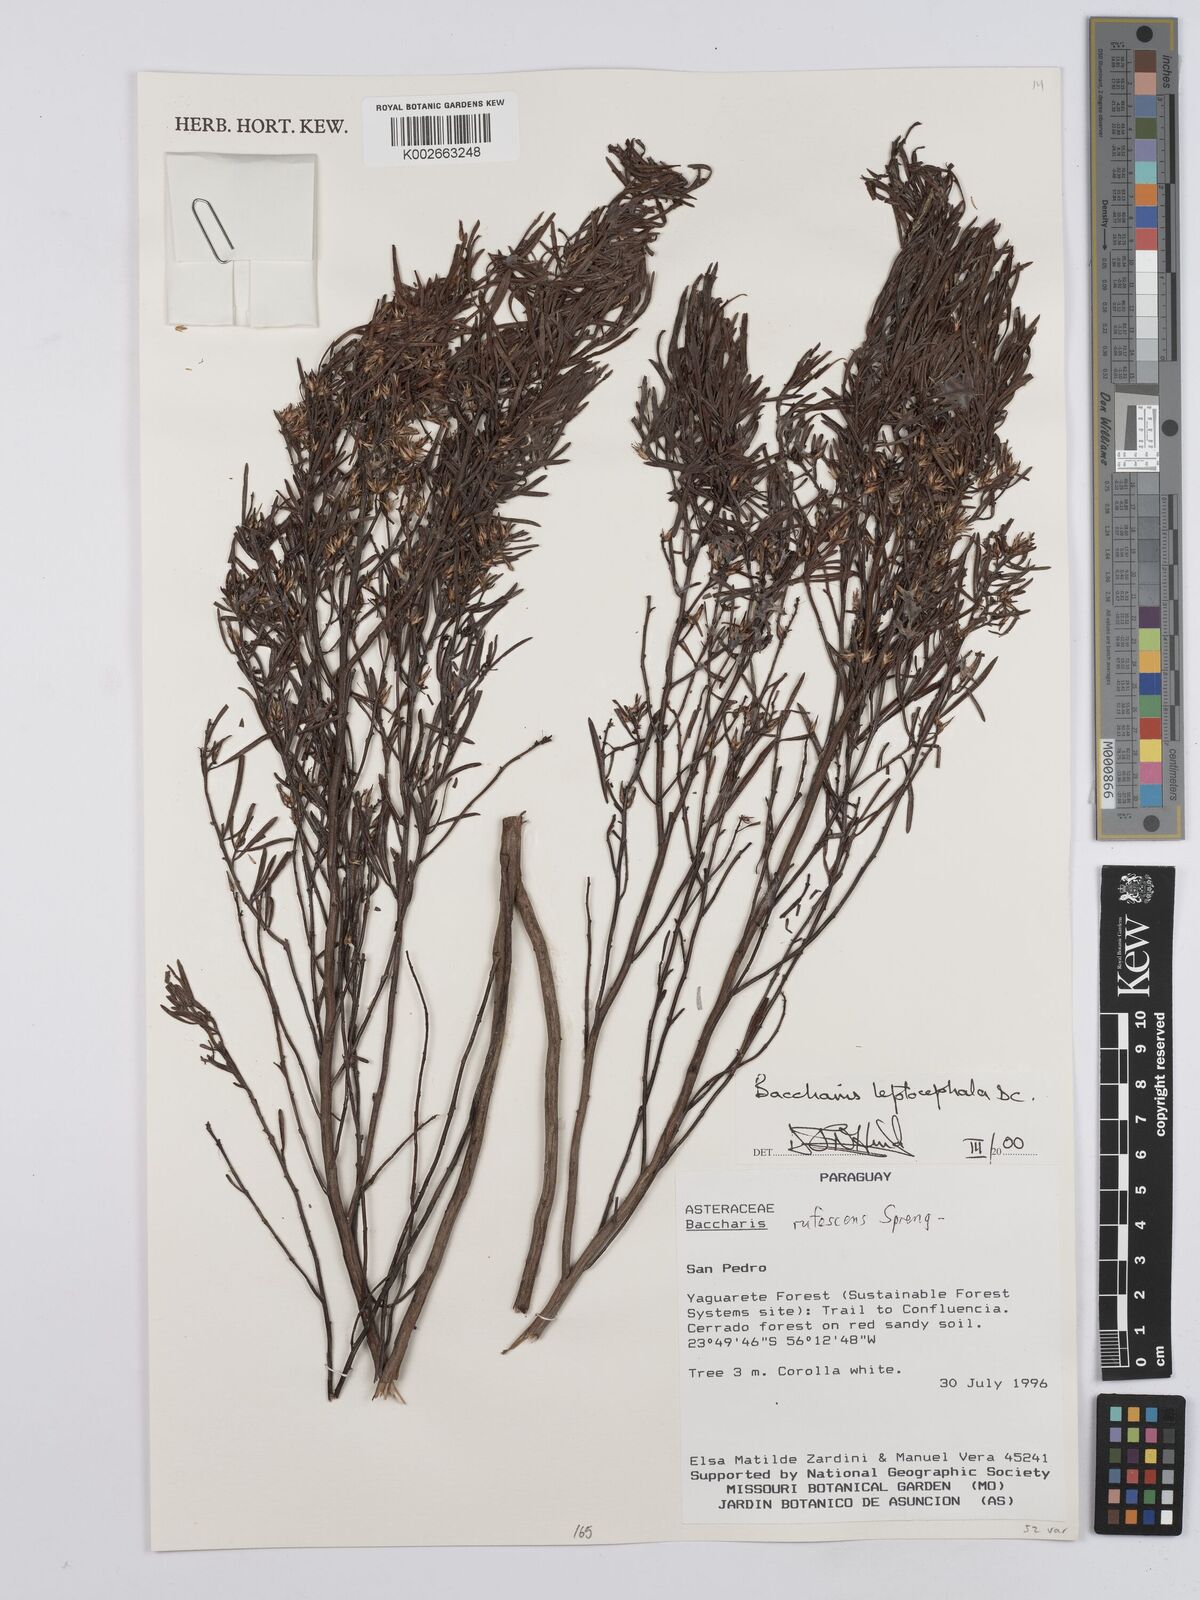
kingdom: Plantae
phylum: Tracheophyta
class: Magnoliopsida
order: Asterales
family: Asteraceae
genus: Baccharis
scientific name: Baccharis rufescens
